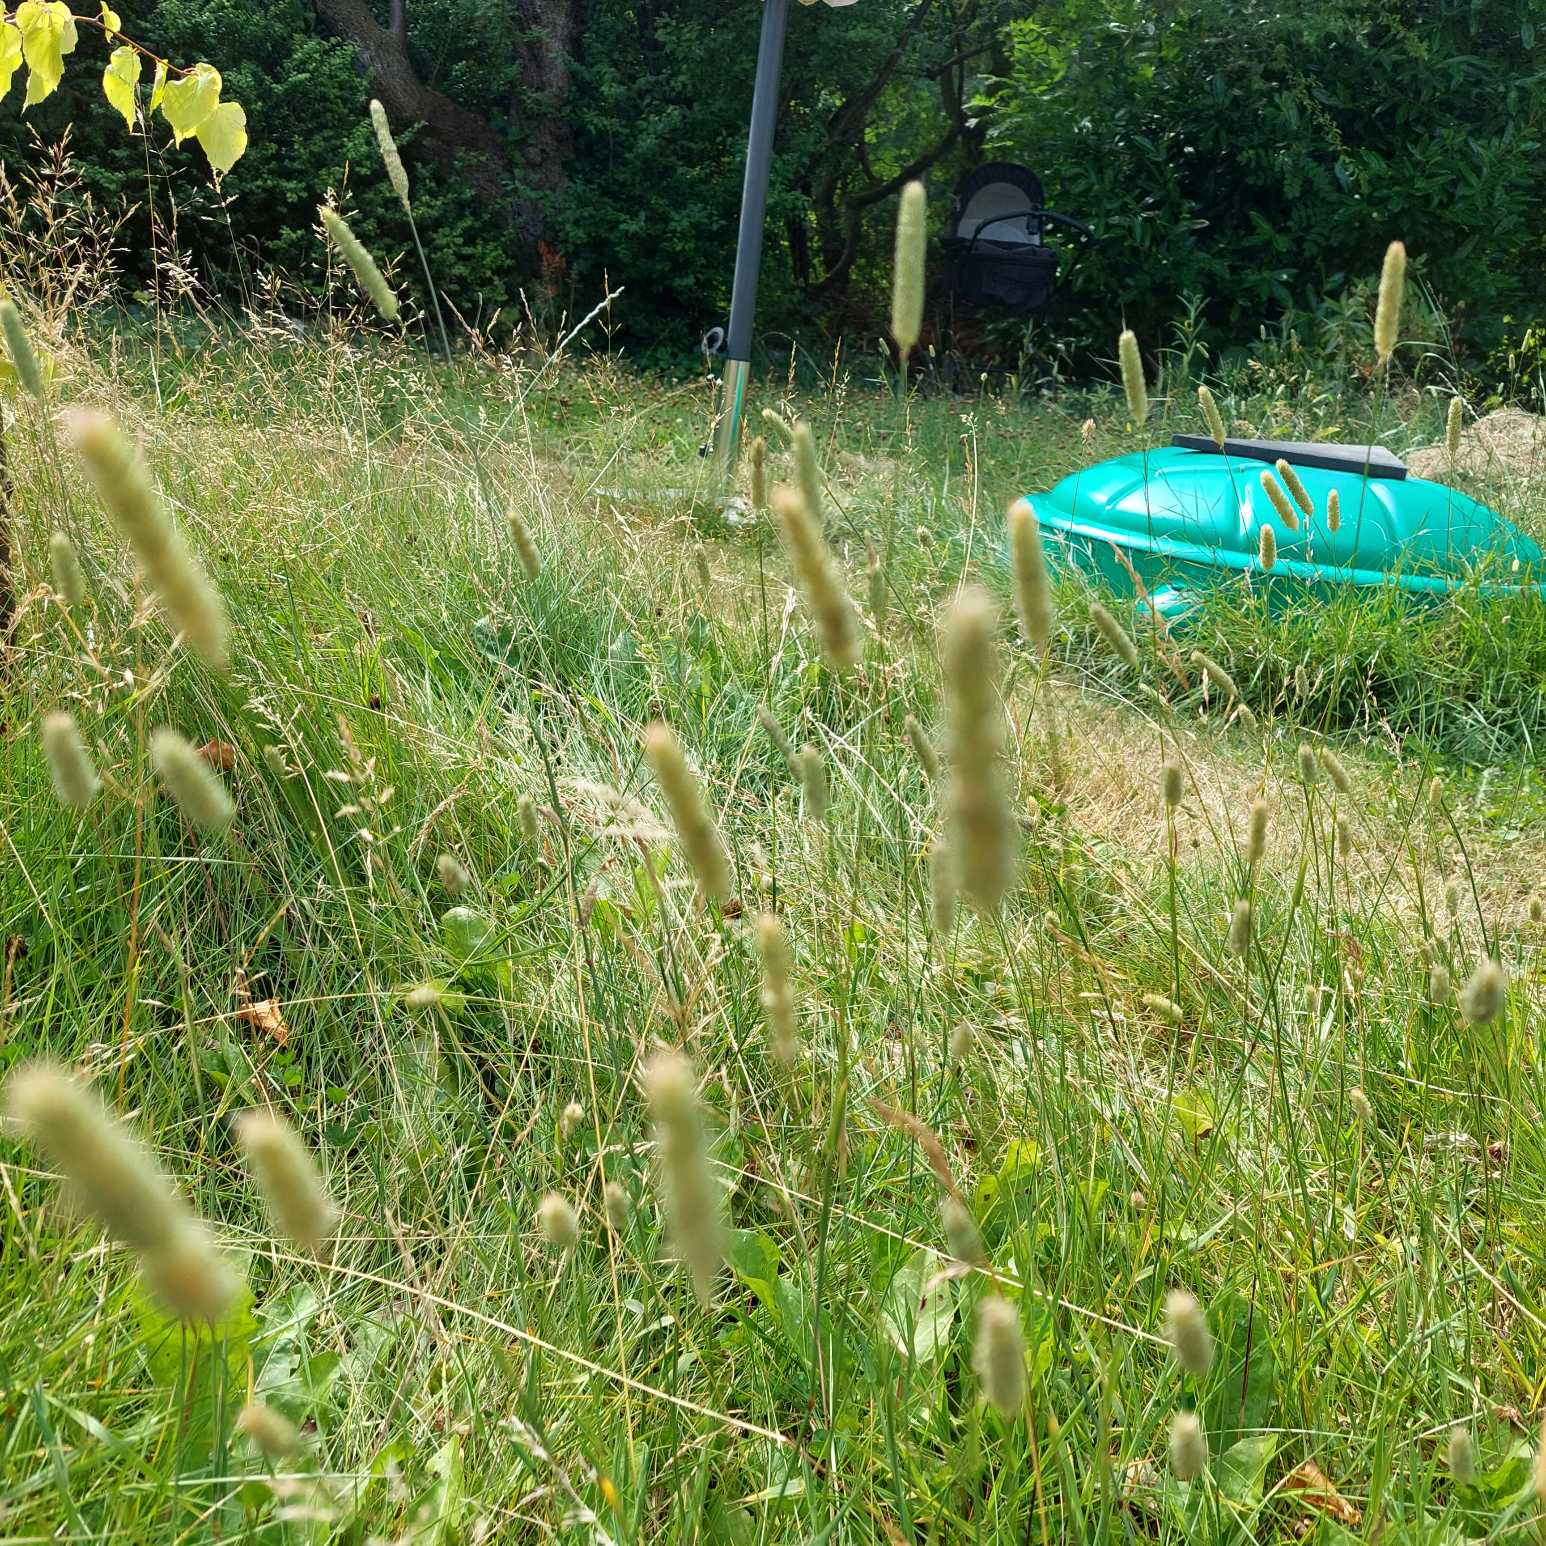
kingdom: Plantae
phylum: Tracheophyta
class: Liliopsida
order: Poales
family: Poaceae
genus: Phleum
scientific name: Phleum pratense
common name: Eng-rottehale
